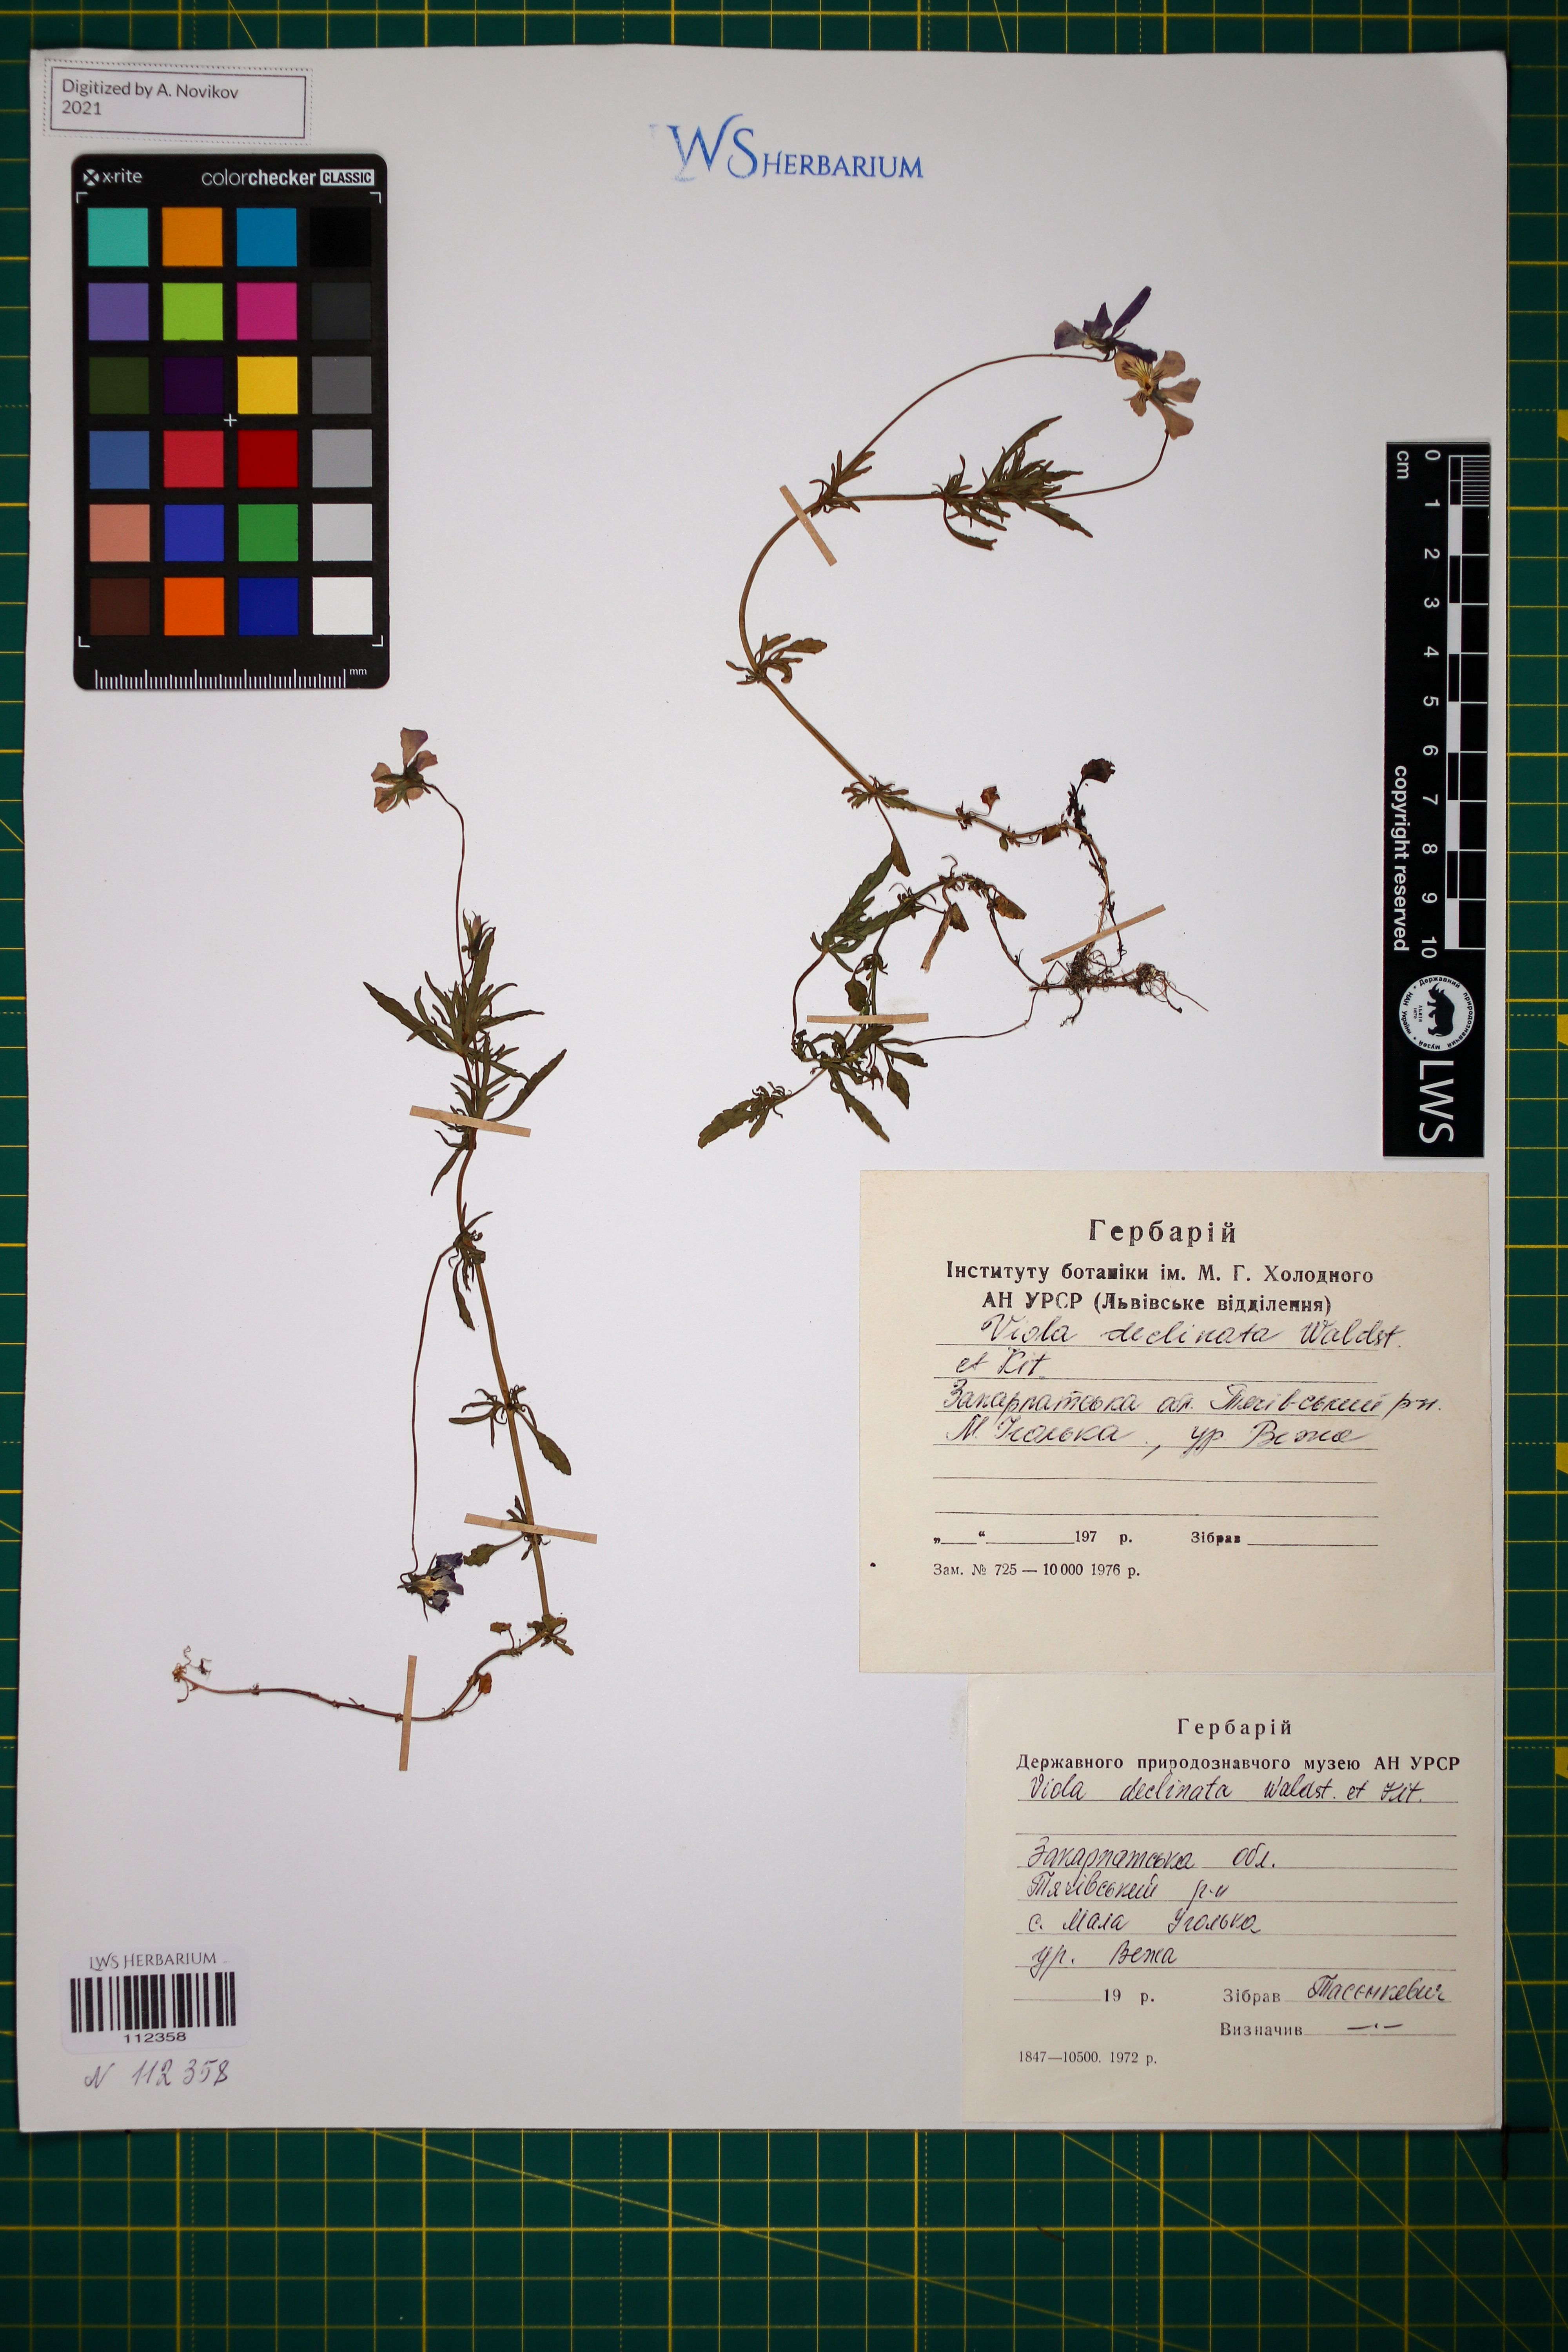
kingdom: Plantae
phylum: Tracheophyta
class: Magnoliopsida
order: Malpighiales
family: Violaceae
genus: Viola
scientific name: Viola declinata
